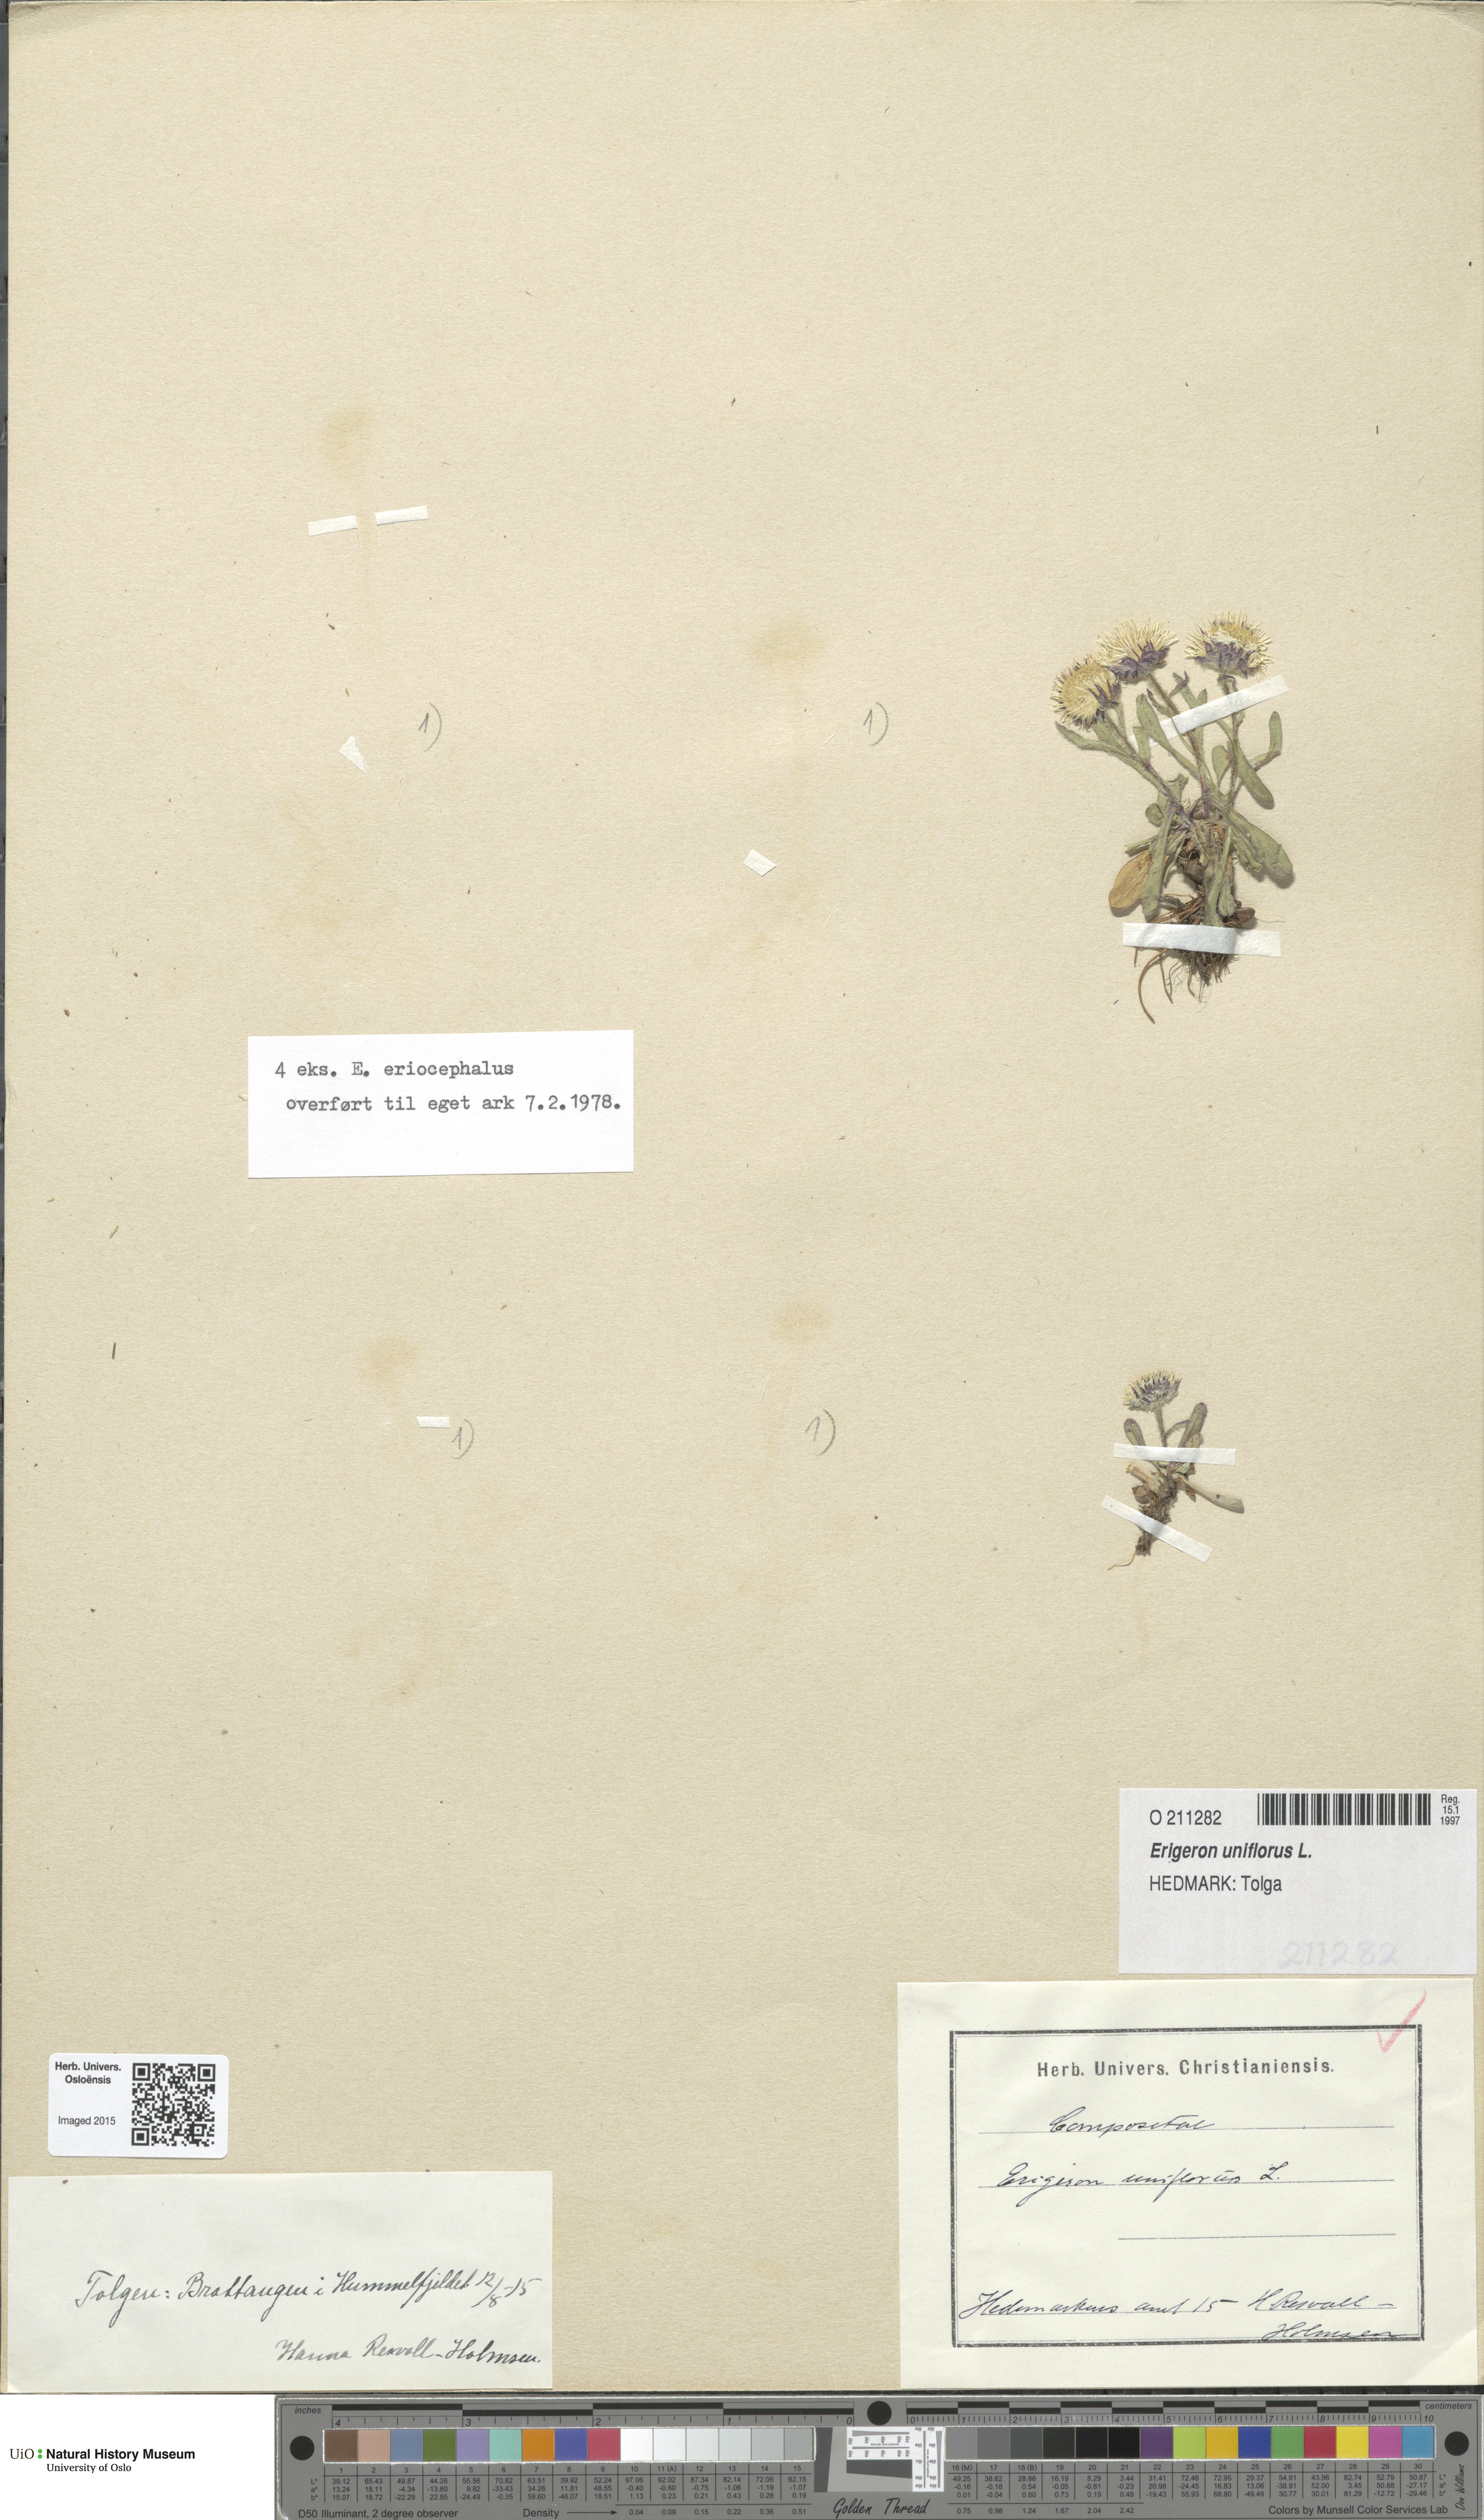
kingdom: Plantae
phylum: Tracheophyta
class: Magnoliopsida
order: Asterales
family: Asteraceae
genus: Erigeron
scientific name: Erigeron uniflorus
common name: Northern daisy
